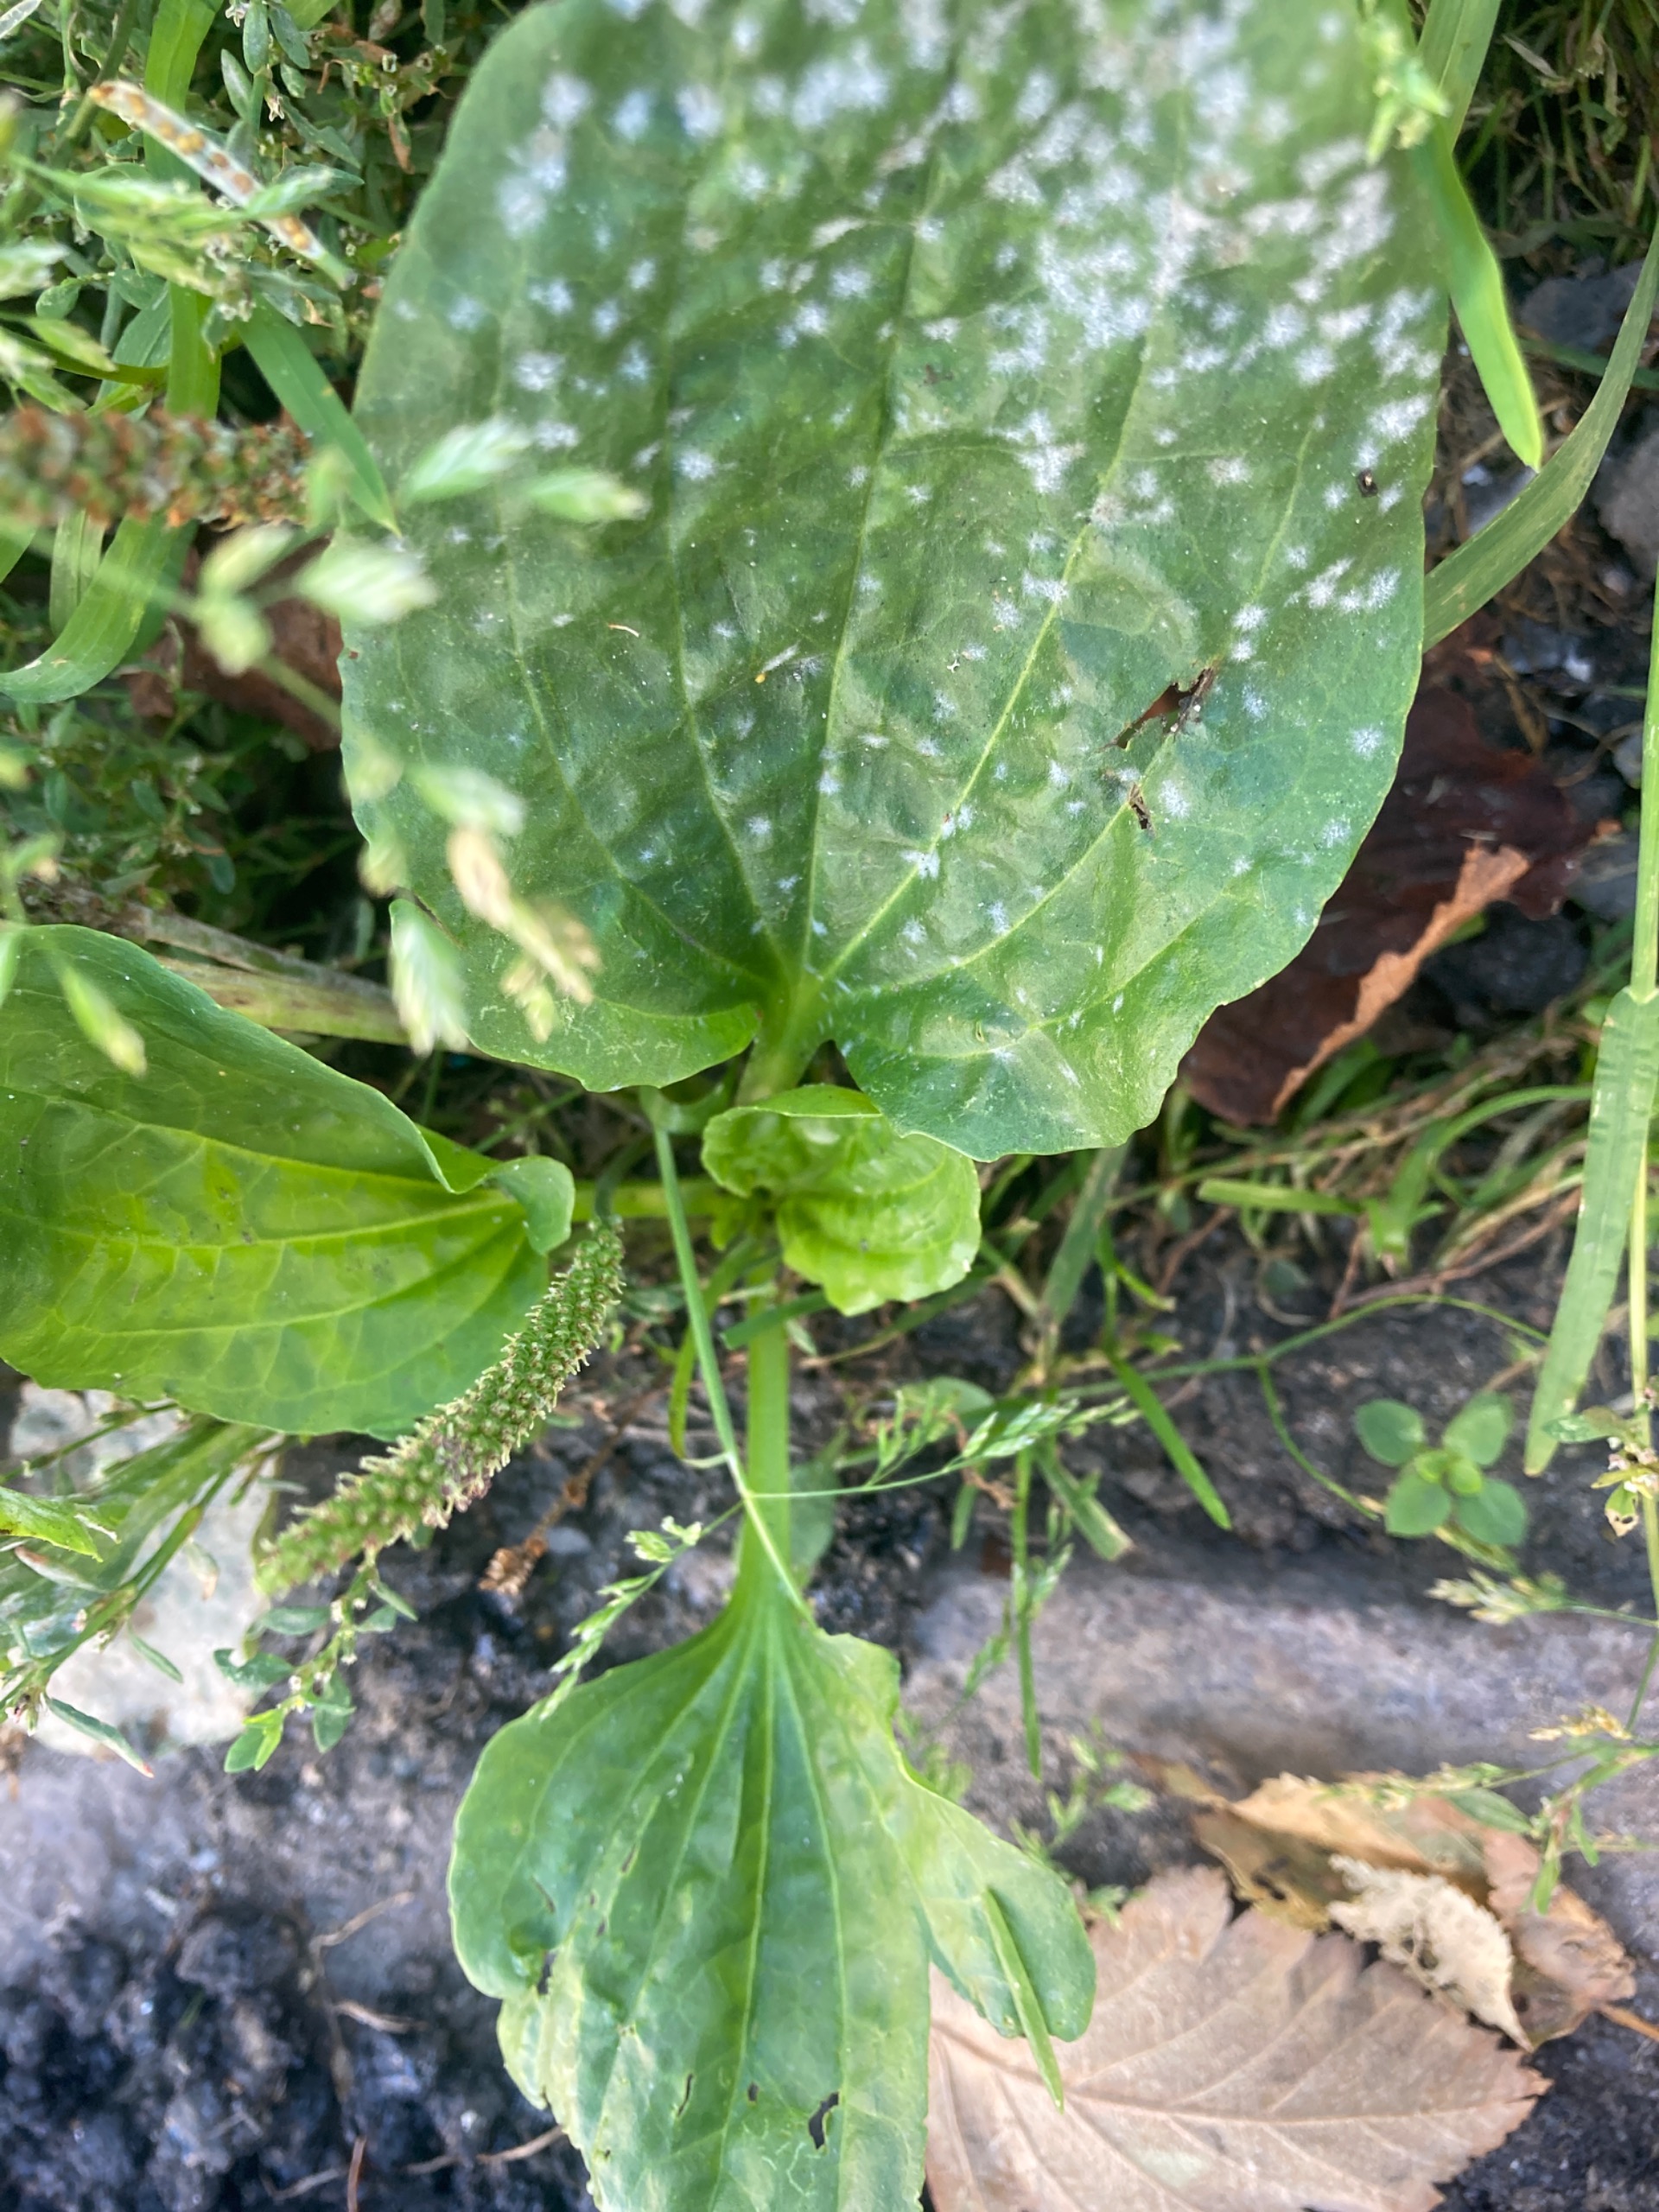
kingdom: Plantae
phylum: Tracheophyta
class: Magnoliopsida
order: Lamiales
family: Plantaginaceae
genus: Plantago
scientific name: Plantago major
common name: Glat vejbred
